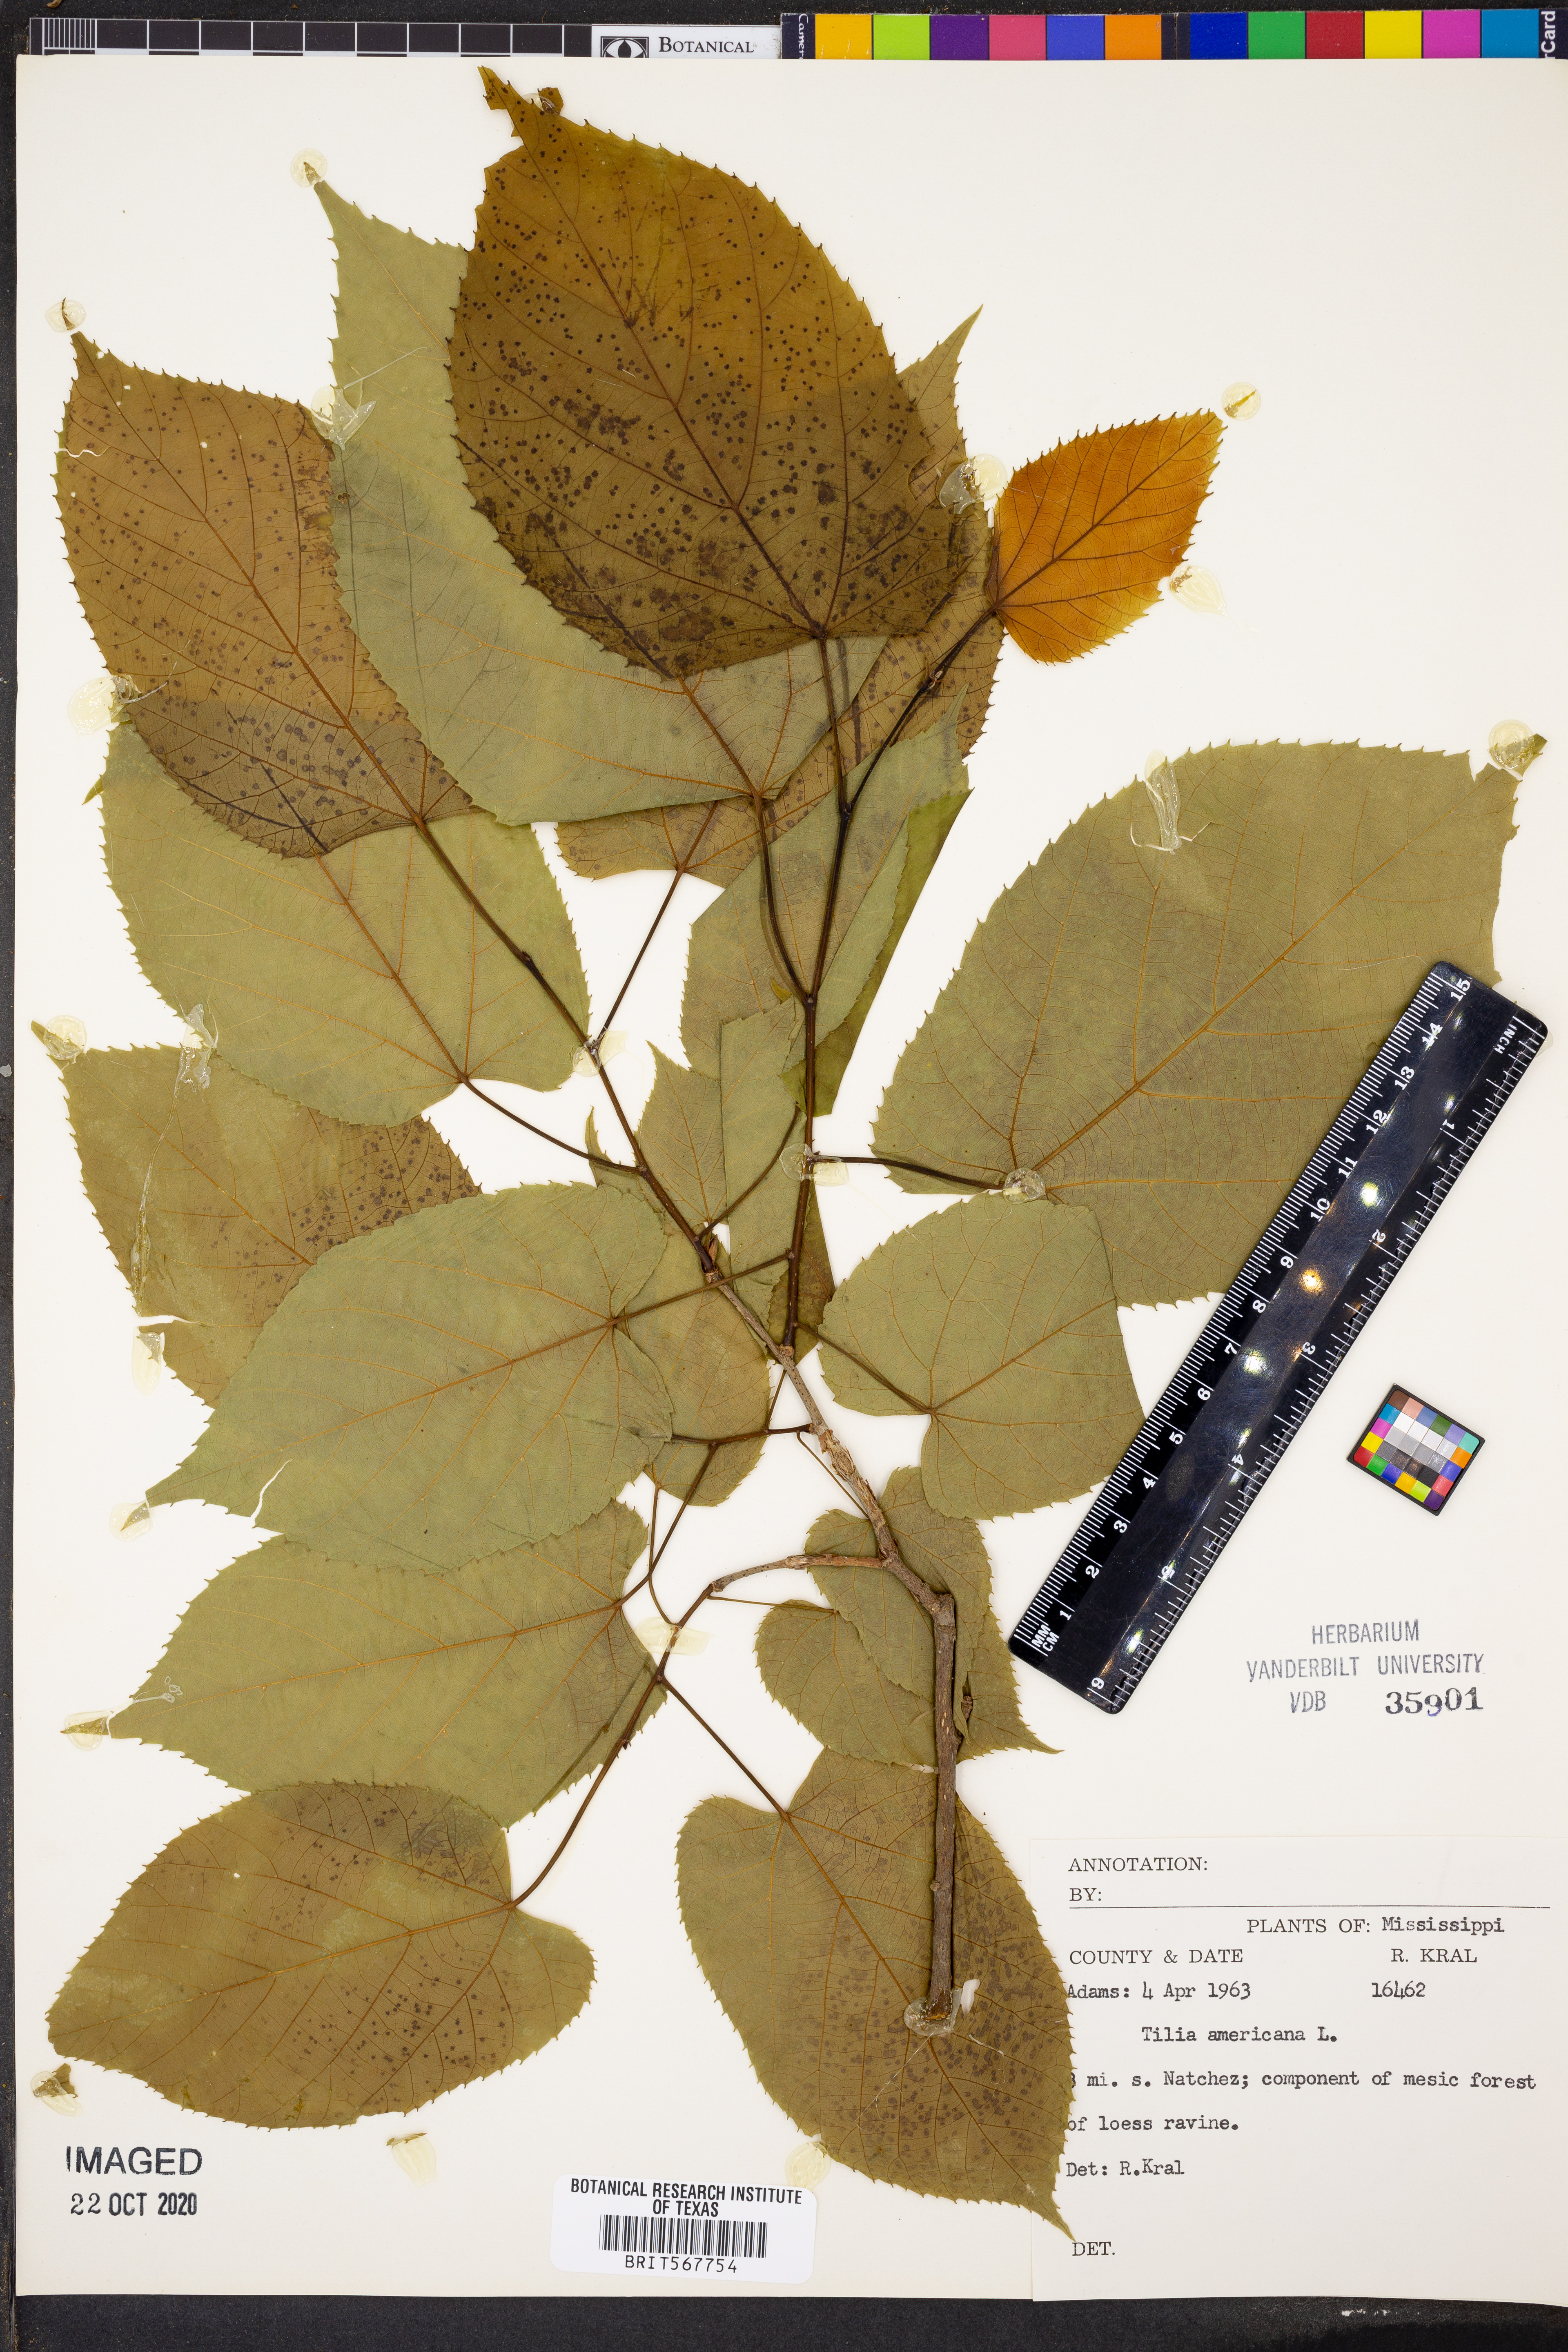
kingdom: Plantae
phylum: Tracheophyta
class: Magnoliopsida
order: Malvales
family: Malvaceae
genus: Tilia
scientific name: Tilia americana
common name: Basswood
